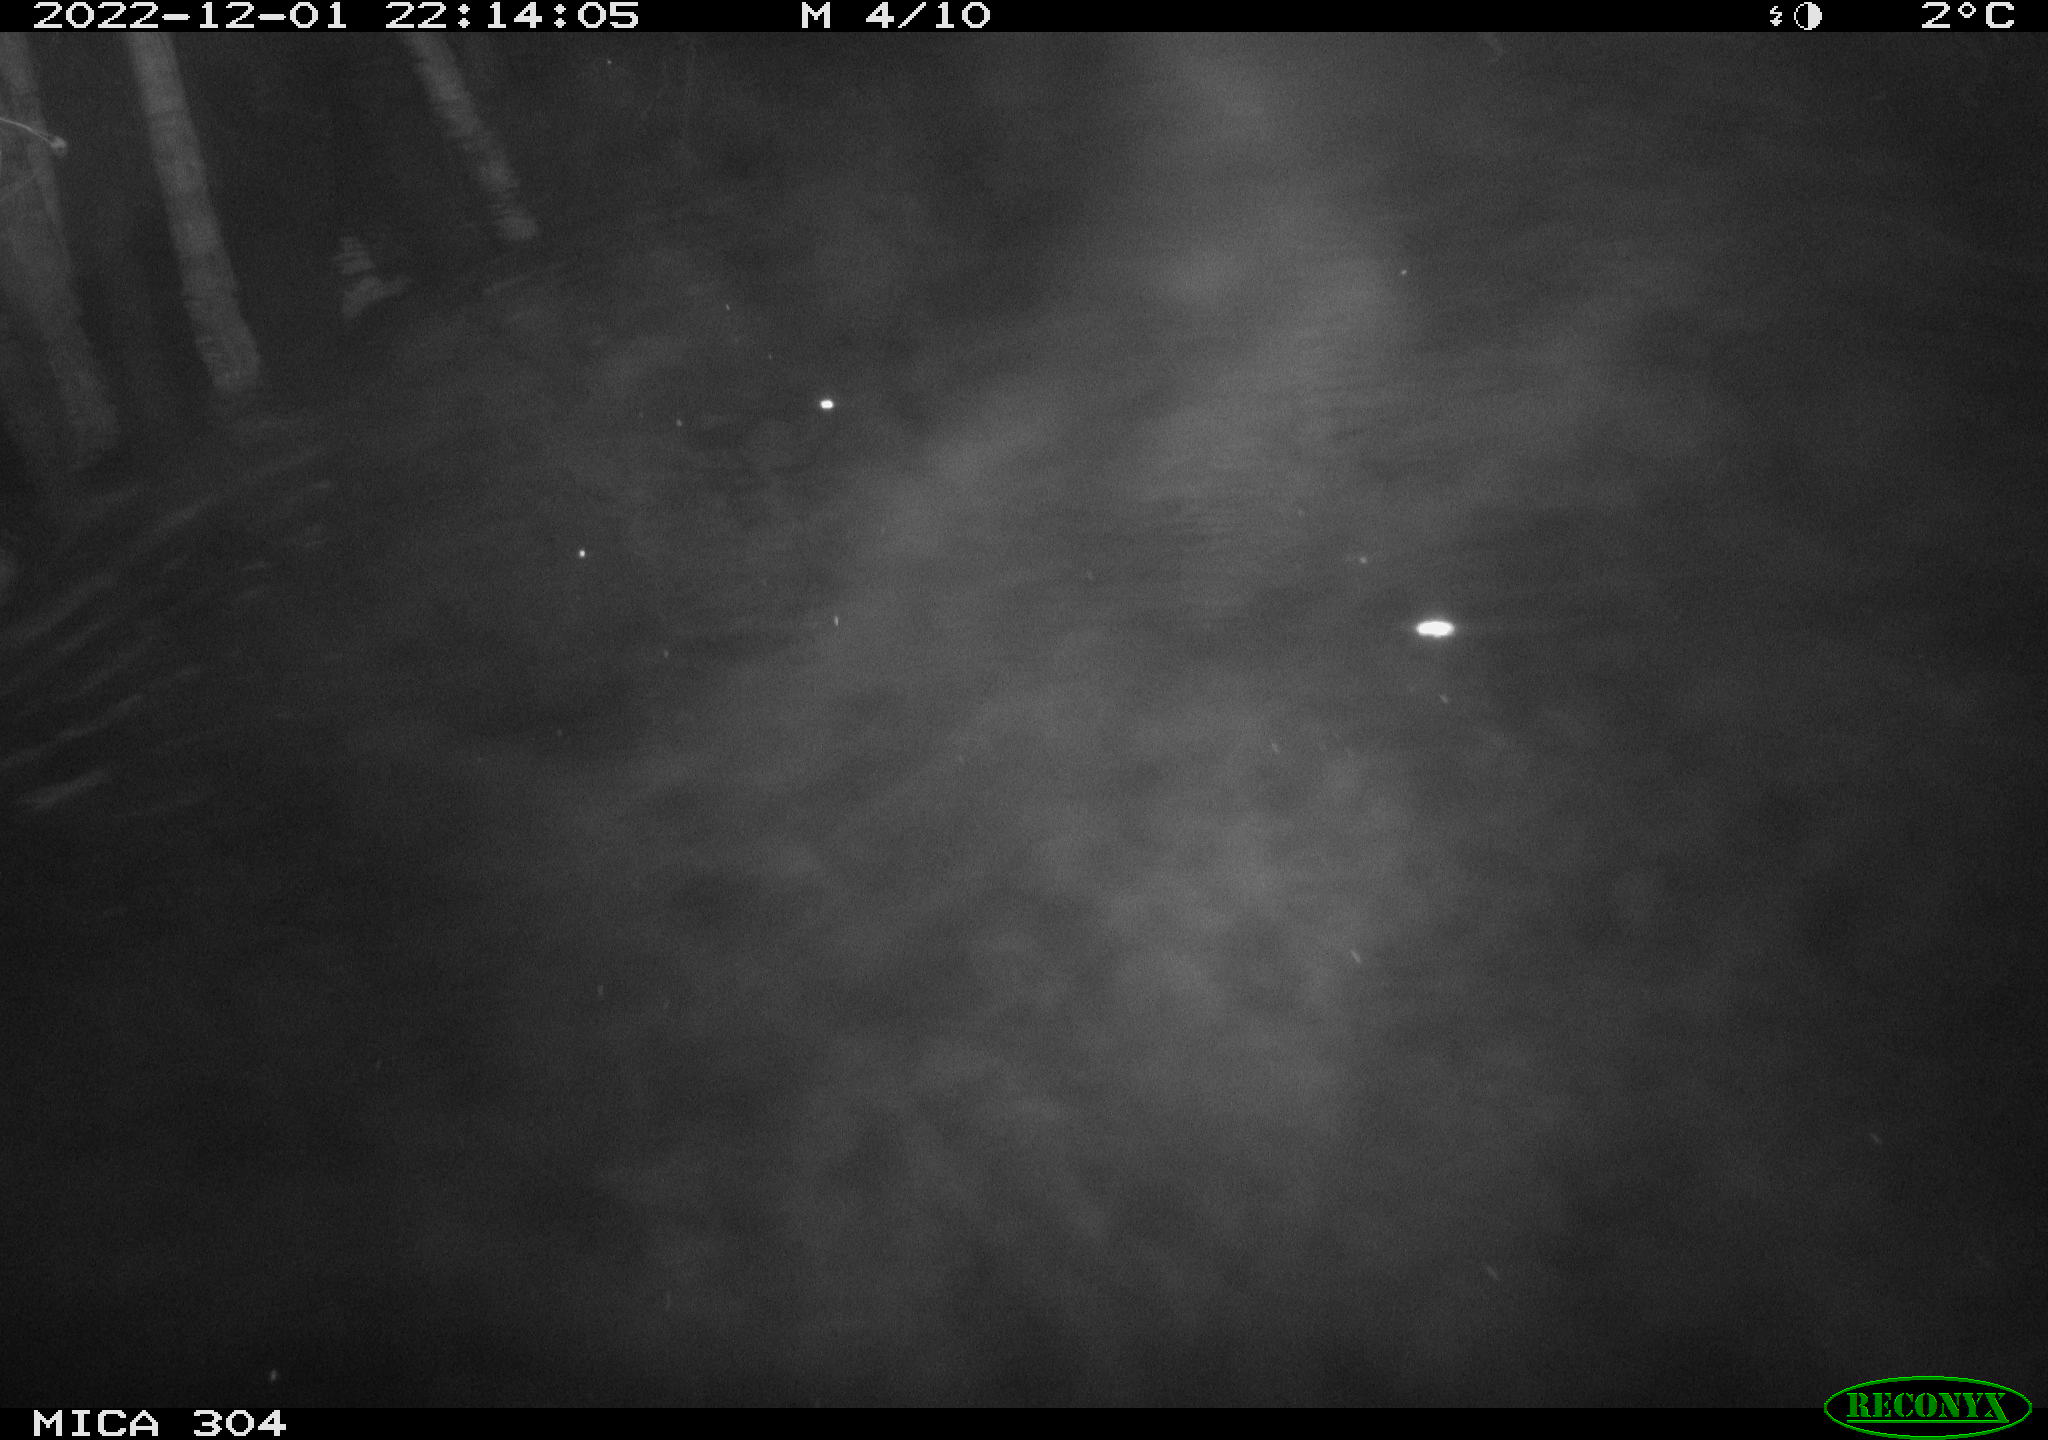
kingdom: Animalia
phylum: Chordata
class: Mammalia
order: Rodentia
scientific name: Rodentia
